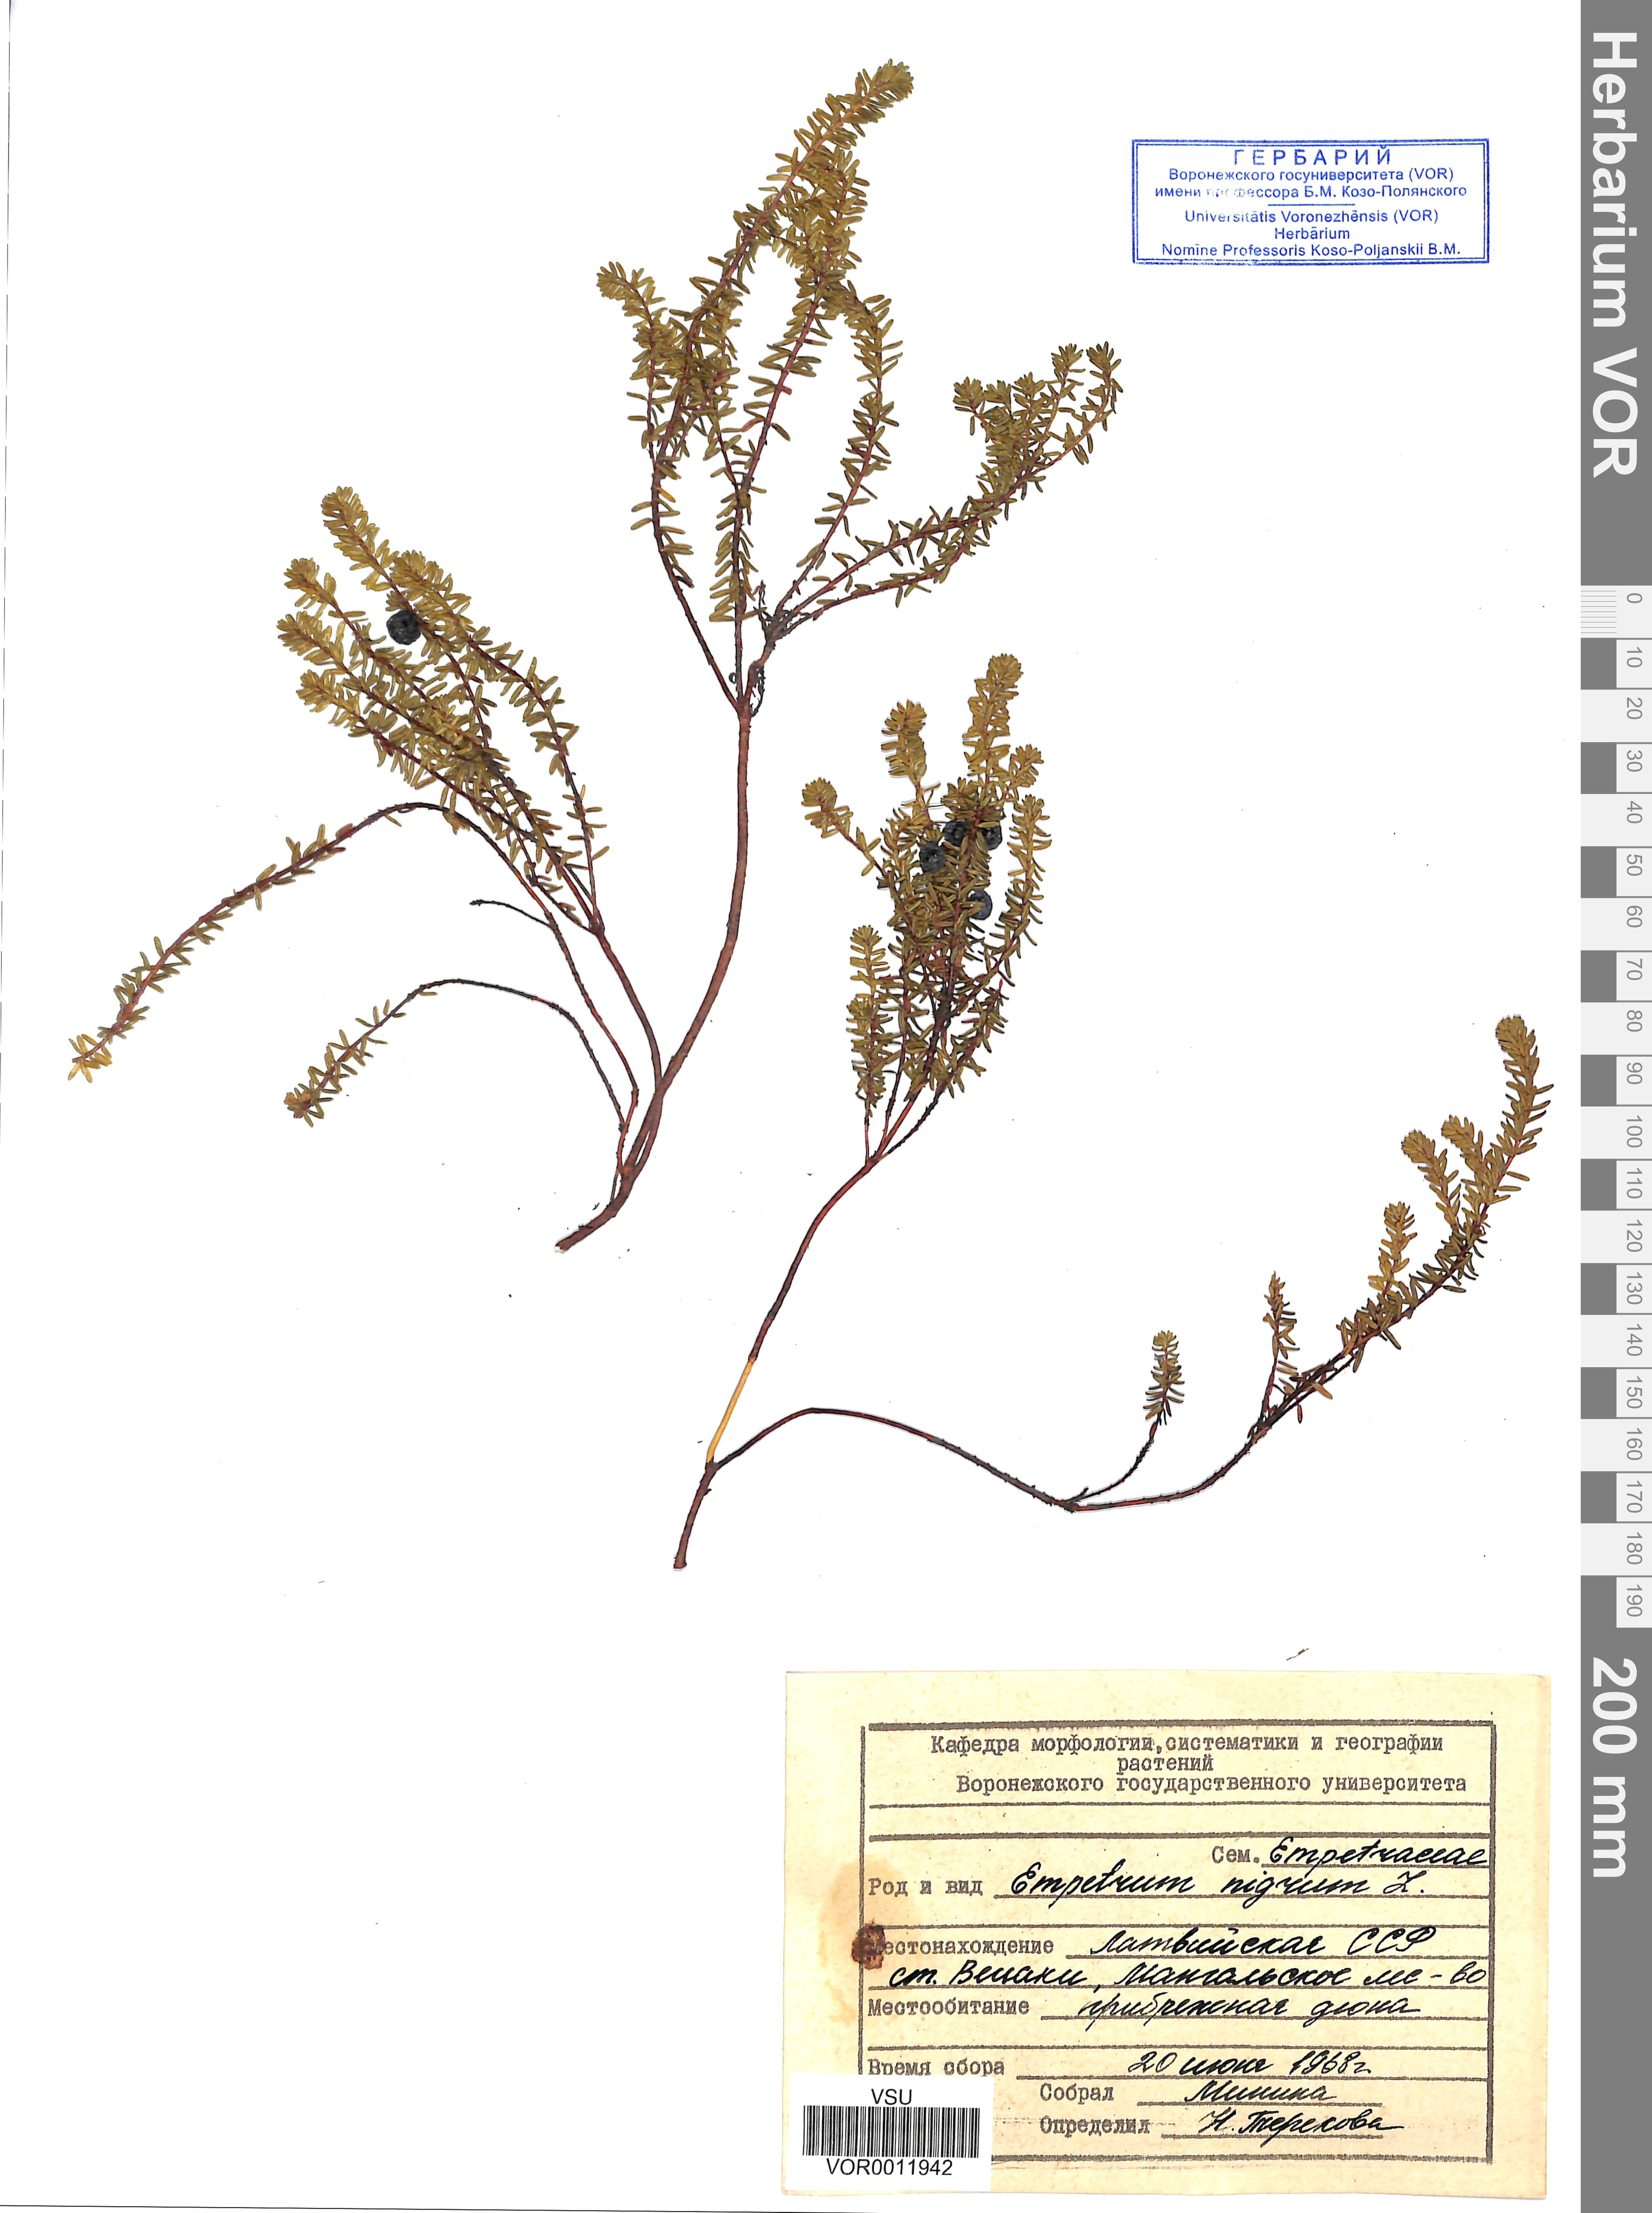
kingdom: Plantae
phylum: Tracheophyta
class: Magnoliopsida
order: Ericales
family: Ericaceae
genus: Empetrum
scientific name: Empetrum nigrum
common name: Black crowberry
